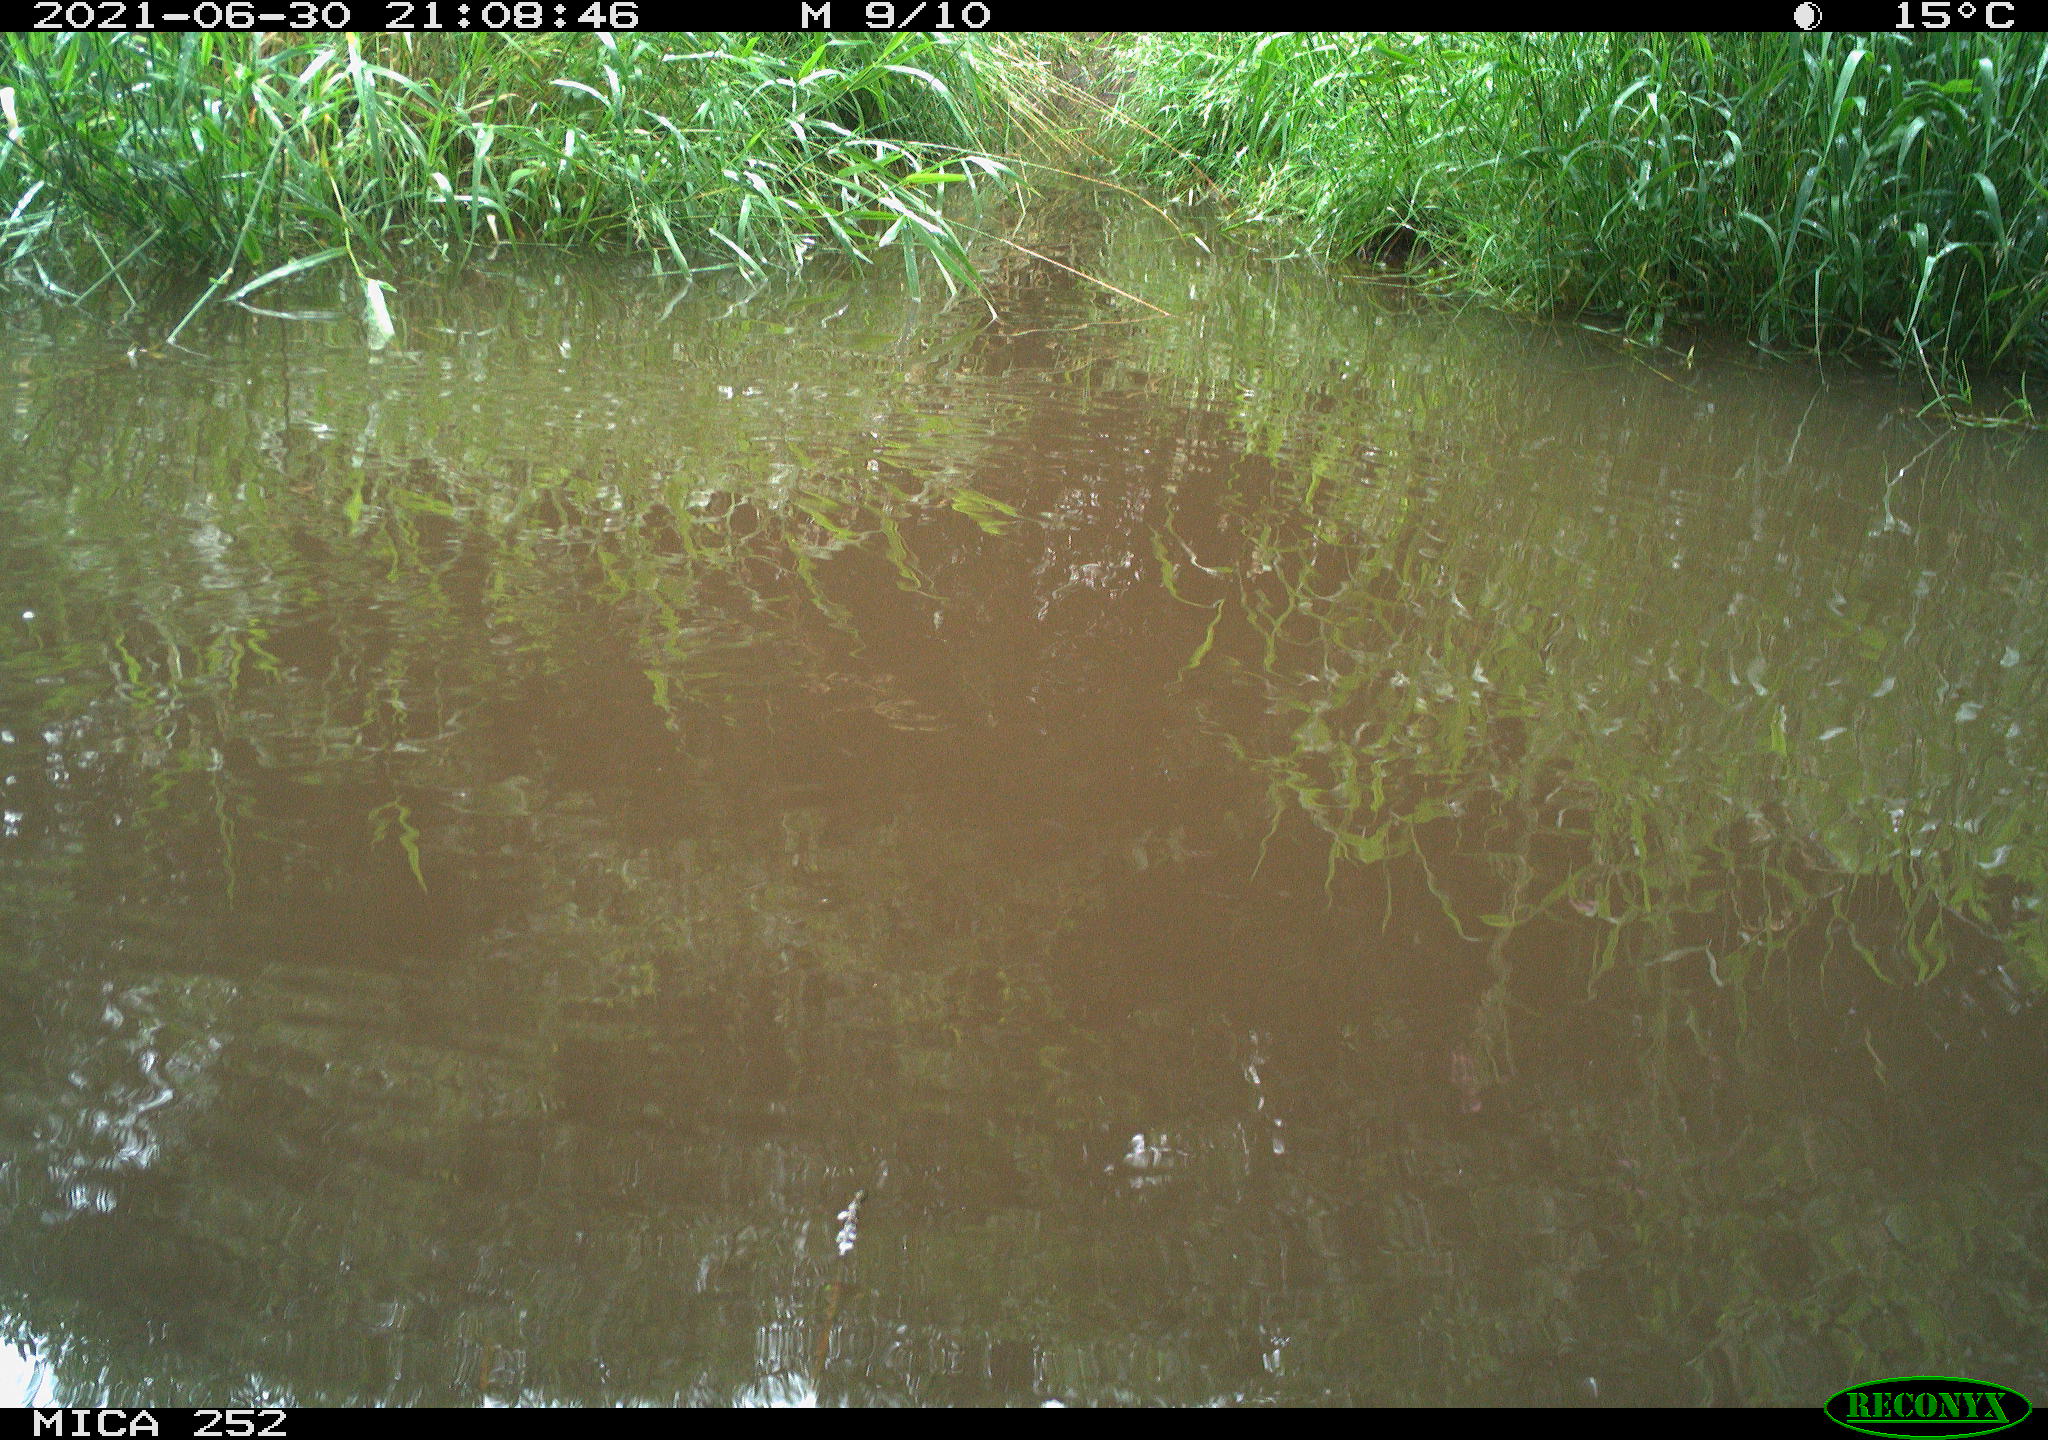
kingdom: Animalia
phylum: Chordata
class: Aves
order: Anseriformes
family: Anatidae
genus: Anas
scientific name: Anas platyrhynchos
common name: Mallard
